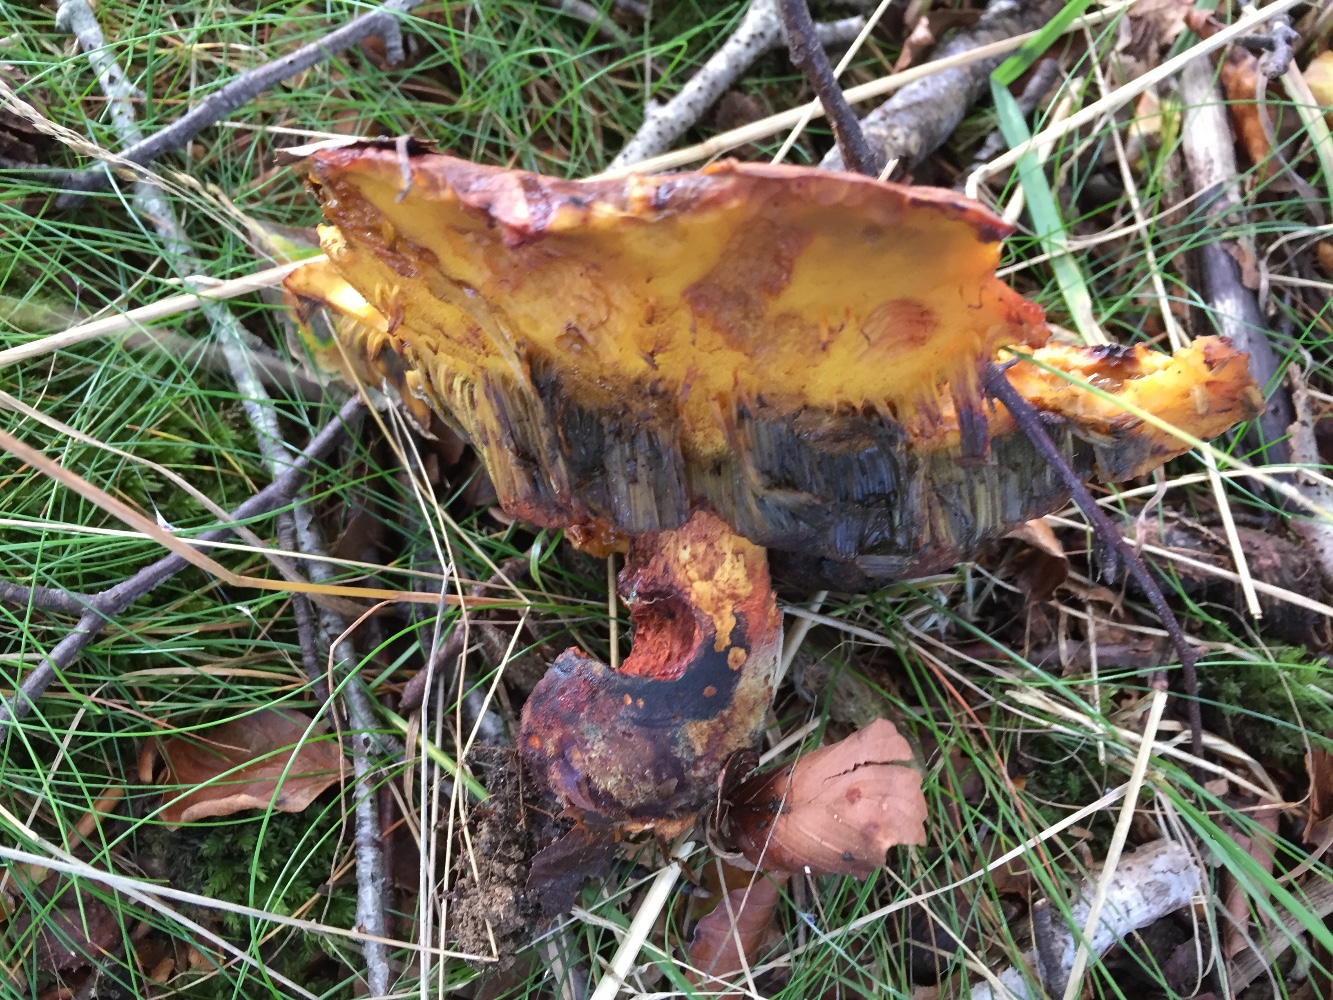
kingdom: Fungi
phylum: Basidiomycota
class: Agaricomycetes
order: Boletales
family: Boletaceae
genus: Neoboletus
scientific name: Neoboletus erythropus
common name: punktstokket indigorørhat
